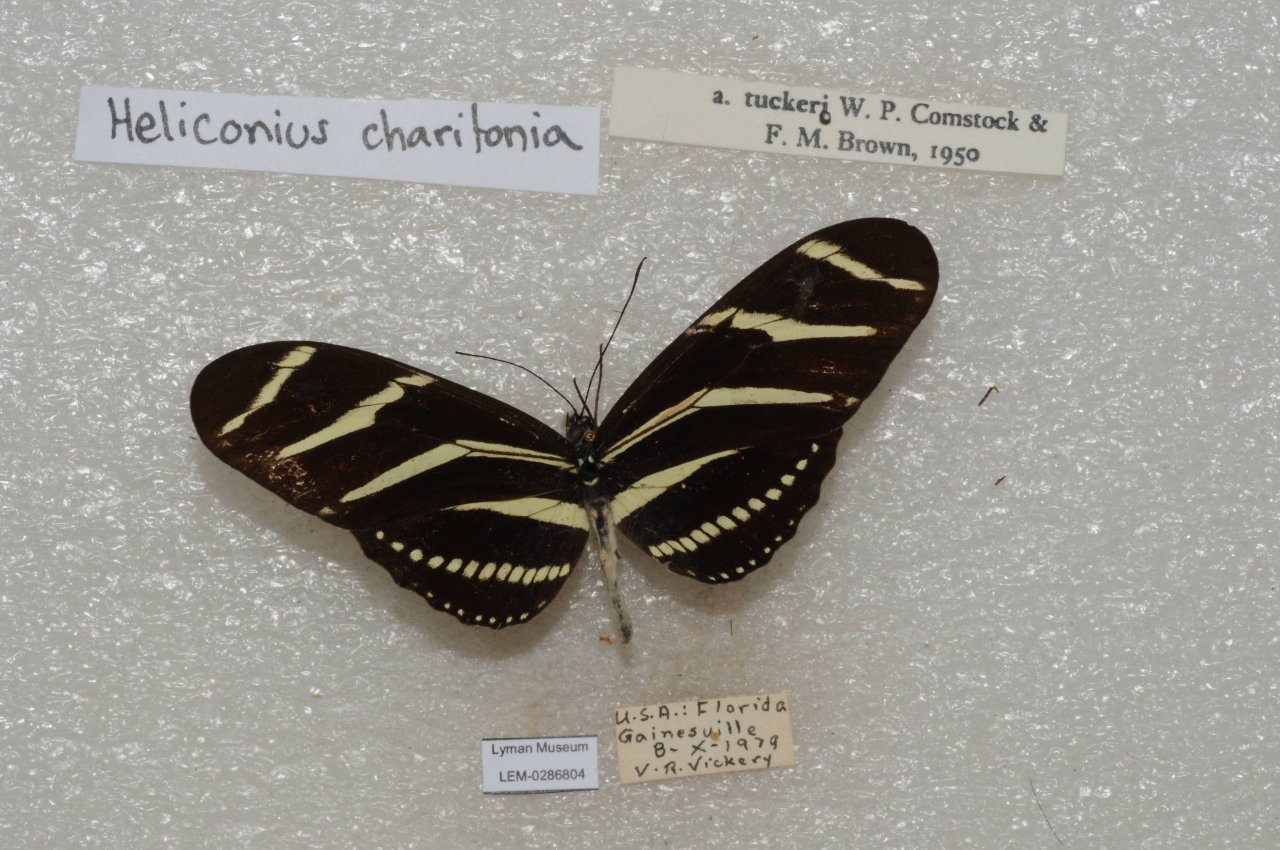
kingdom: Animalia
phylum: Arthropoda
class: Insecta
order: Lepidoptera
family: Nymphalidae
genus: Heliconius
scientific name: Heliconius charithonia
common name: Zebra Longwing
